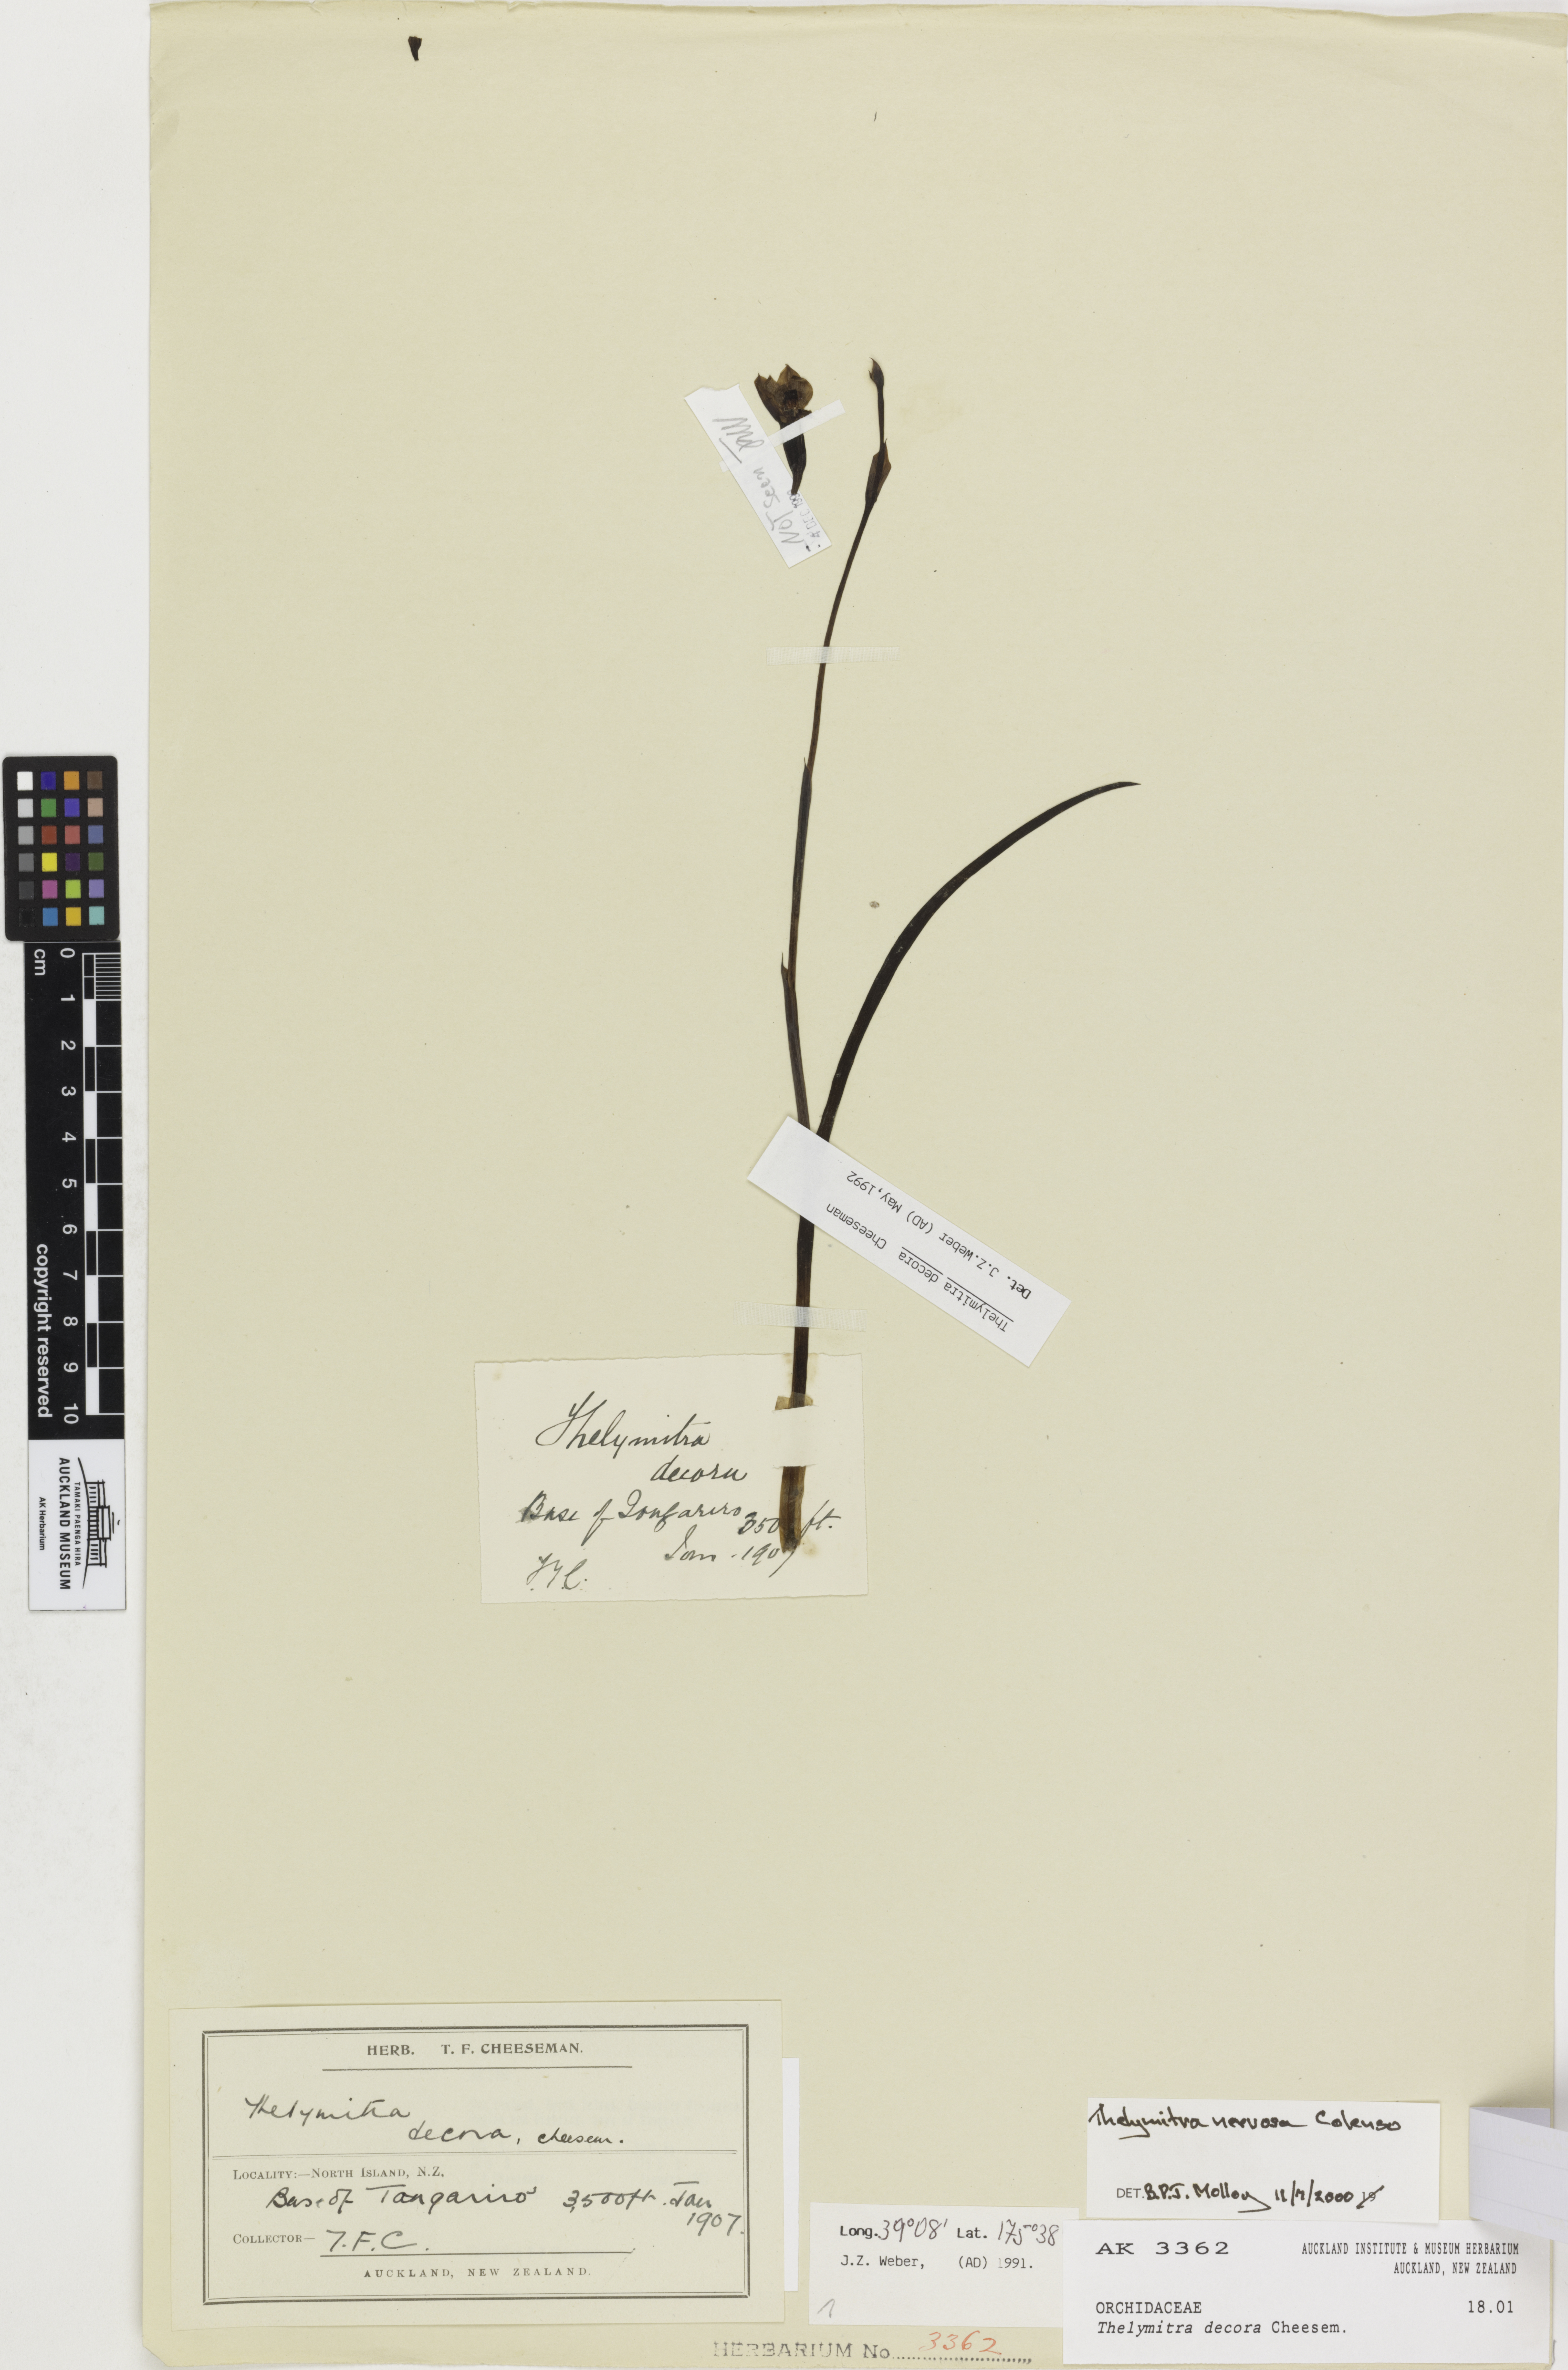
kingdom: Plantae
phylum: Tracheophyta
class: Liliopsida
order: Asparagales
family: Orchidaceae
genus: Thelymitra
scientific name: Thelymitra nervosa
